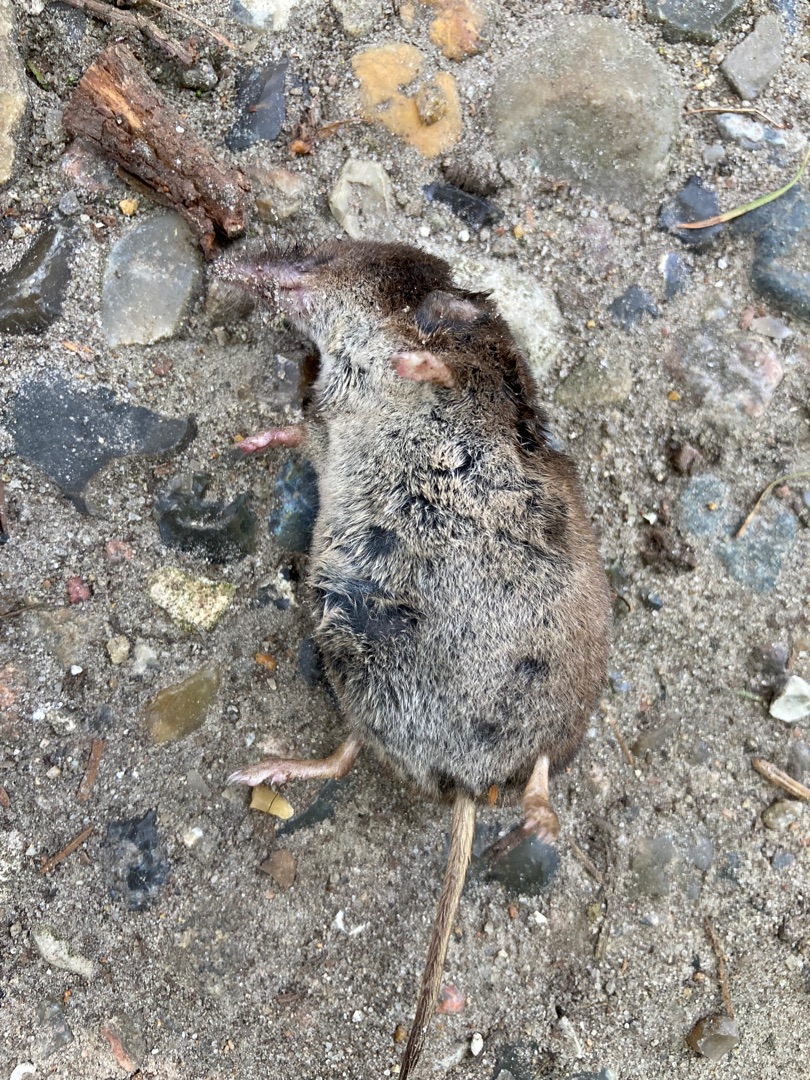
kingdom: Animalia
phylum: Chordata
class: Mammalia
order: Soricomorpha
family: Soricidae
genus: Sorex
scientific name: Sorex araneus
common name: Almindelig spidsmus
